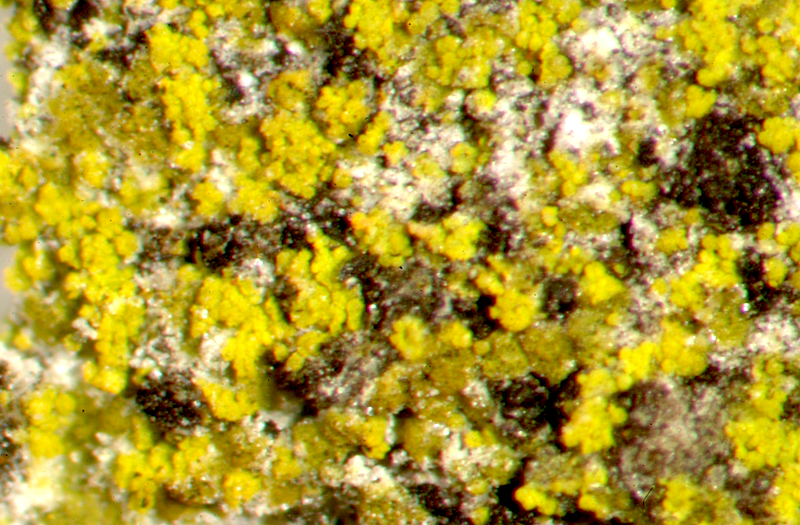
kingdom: Fungi
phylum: Ascomycota
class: Lecanoromycetes
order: Teloschistales
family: Teloschistaceae
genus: Flavoplaca
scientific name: Flavoplaca citrina
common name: Mealy firedot lichen
